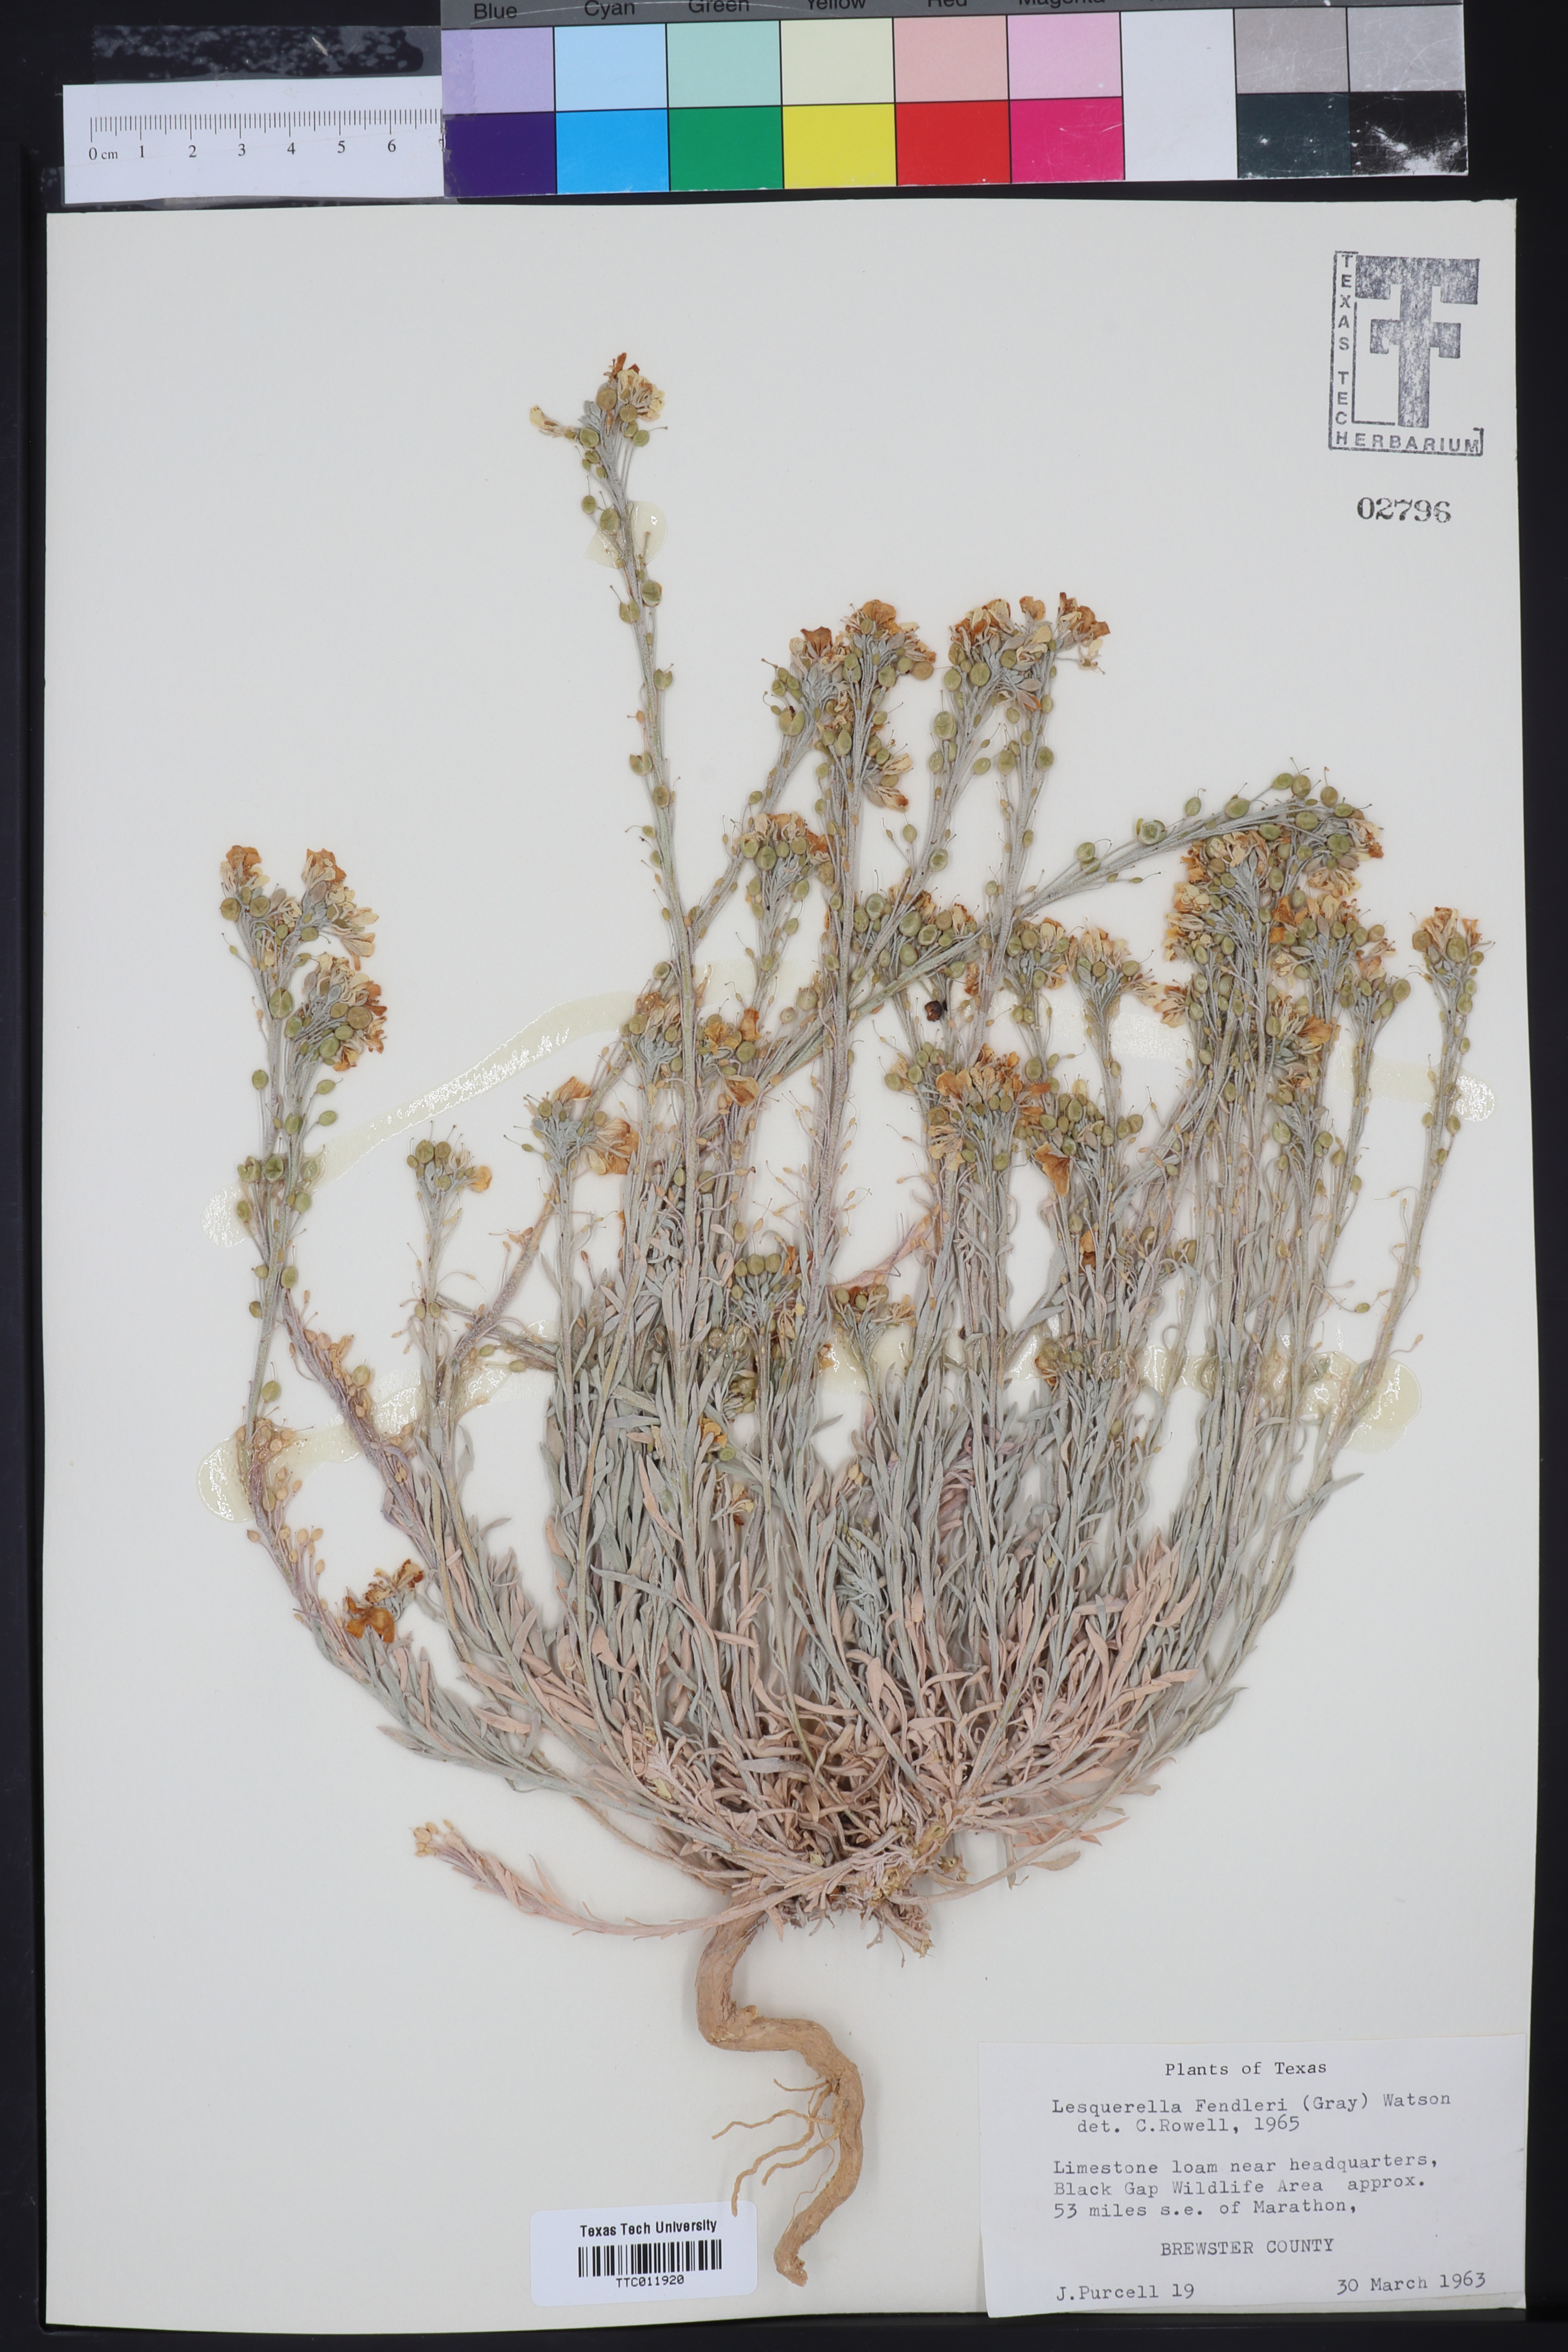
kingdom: Plantae
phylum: Tracheophyta
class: Magnoliopsida
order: Brassicales
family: Brassicaceae
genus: Physaria
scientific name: Physaria fendleri
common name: Fendler's bladderpod
